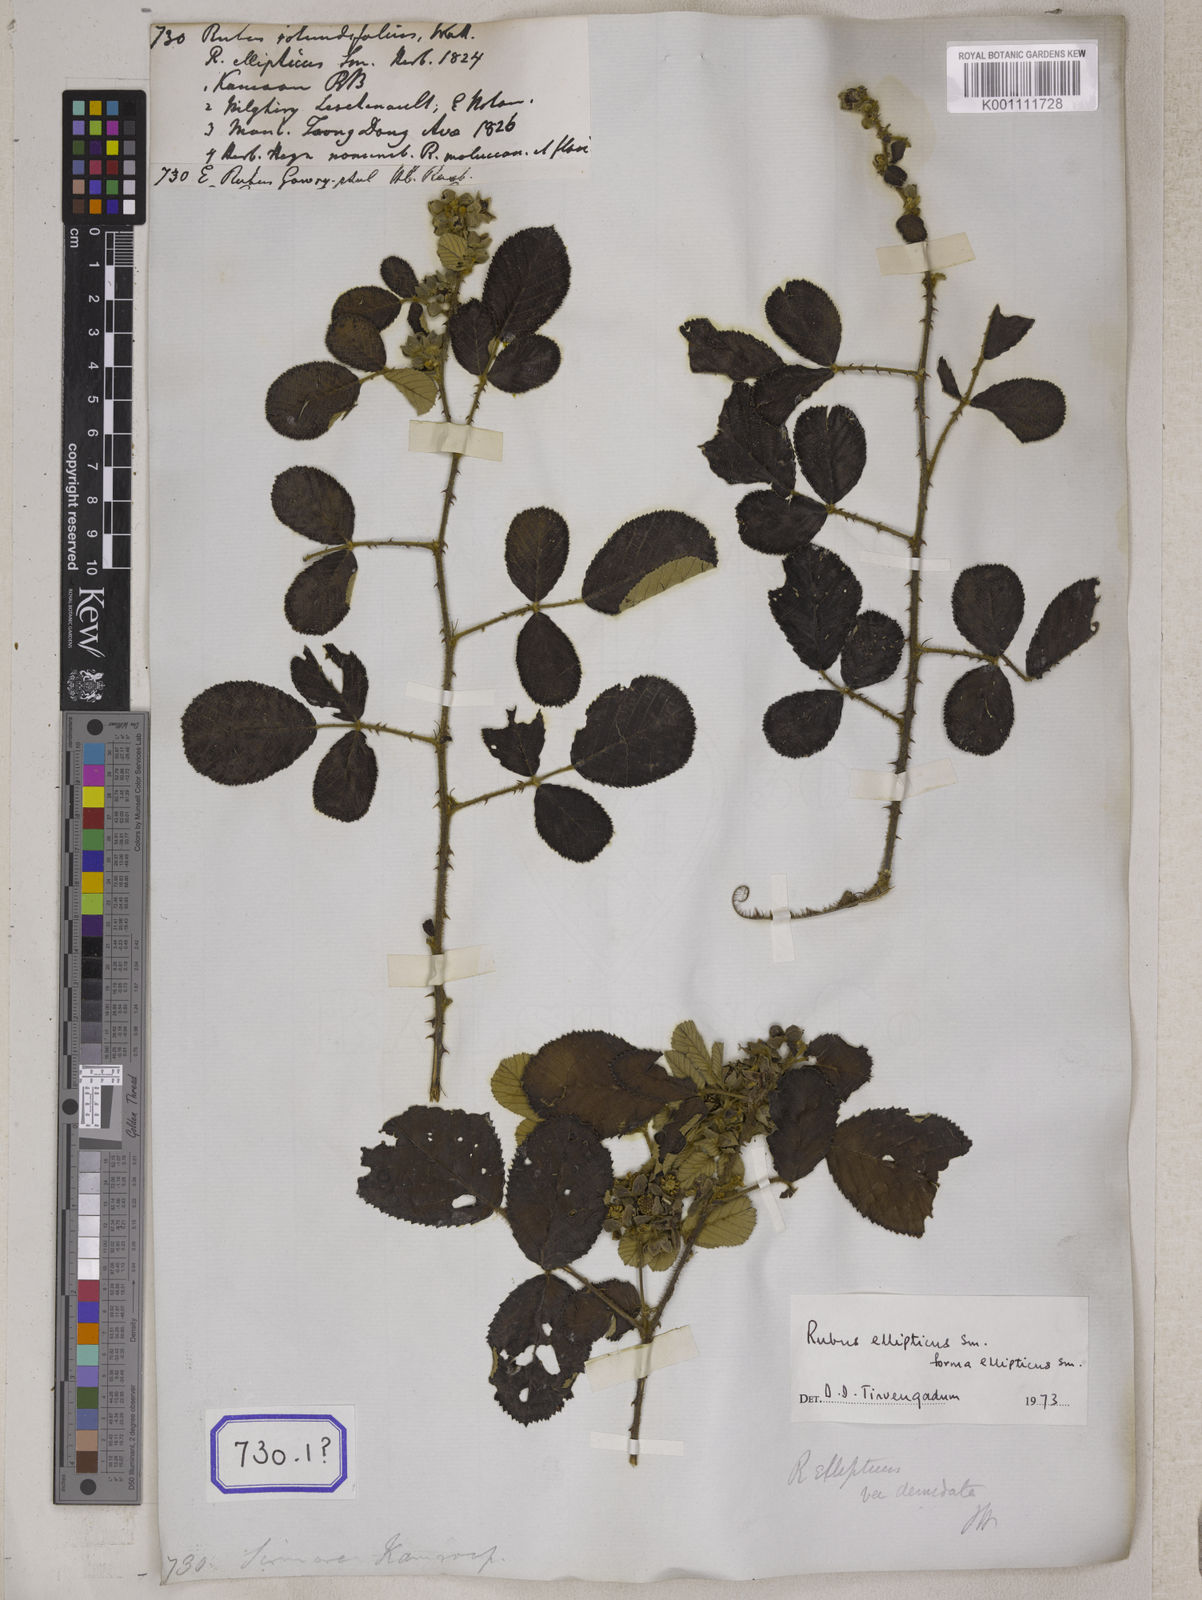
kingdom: Plantae
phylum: Tracheophyta
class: Magnoliopsida
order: Rosales
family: Rosaceae
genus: Rubus
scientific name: Rubus
